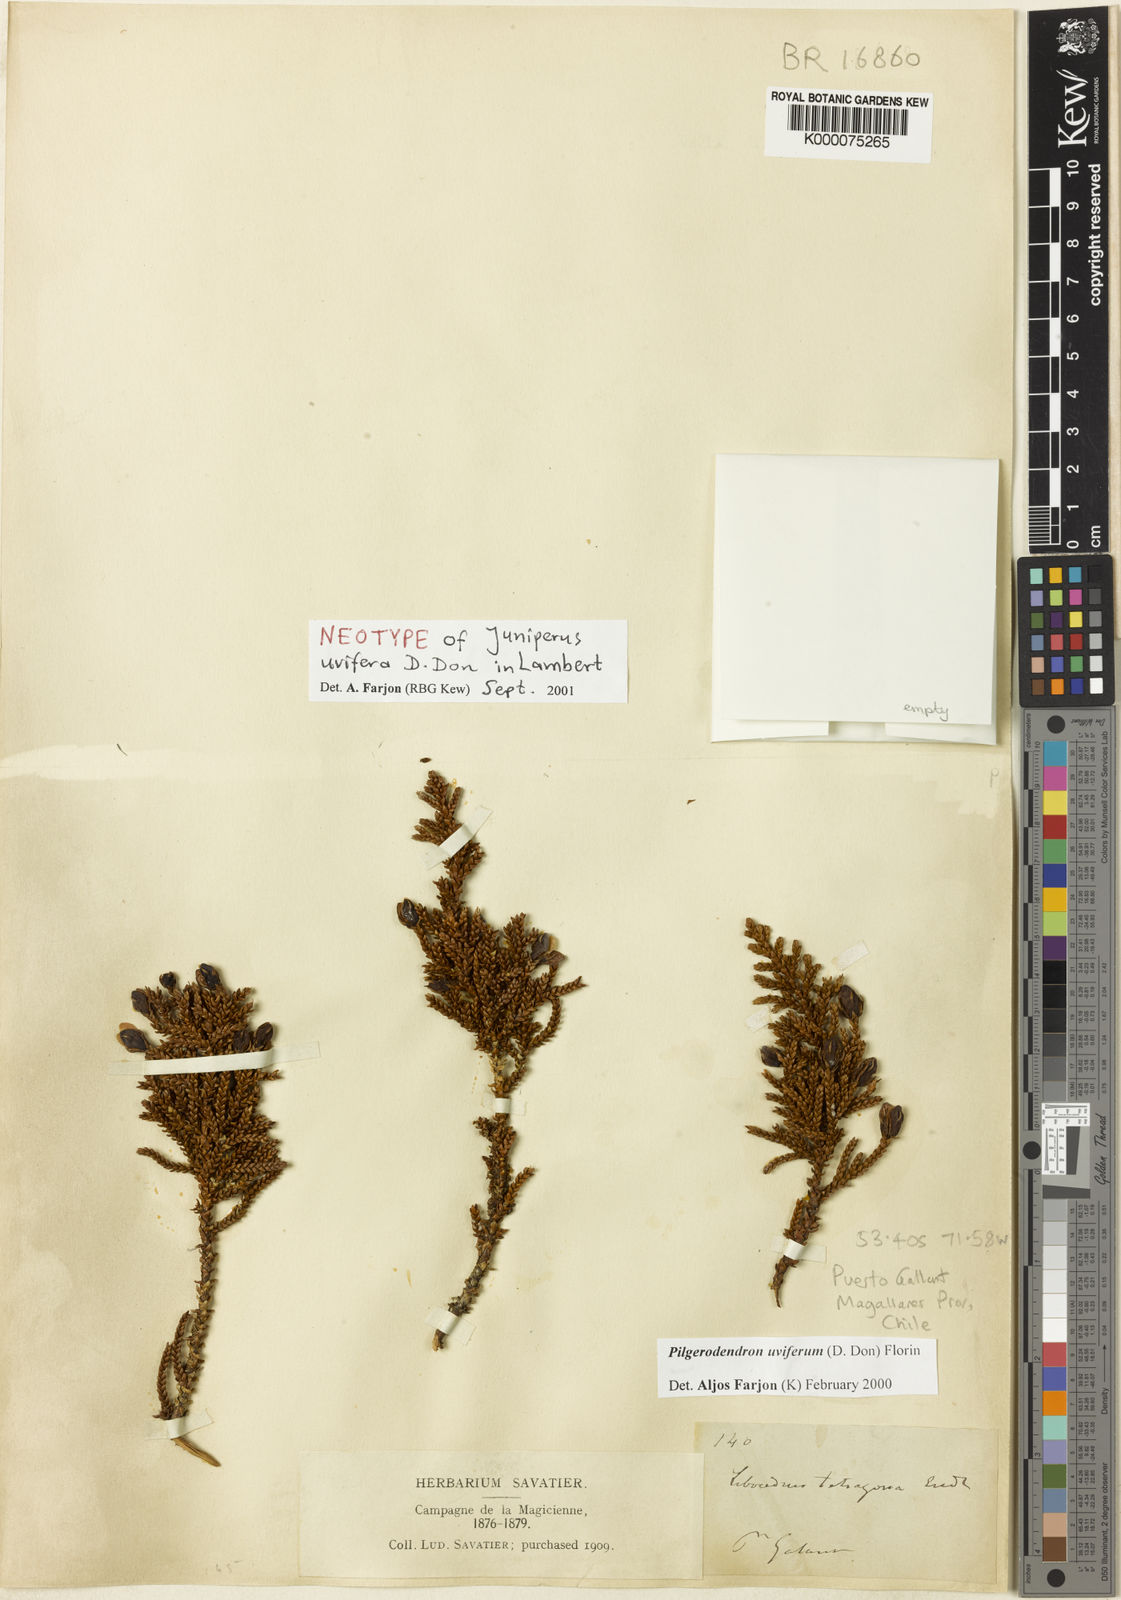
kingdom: Plantae
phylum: Tracheophyta
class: Pinopsida
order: Pinales
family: Cupressaceae
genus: Pilgerodendron
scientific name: Pilgerodendron uviferum
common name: Guaitecas cypress
